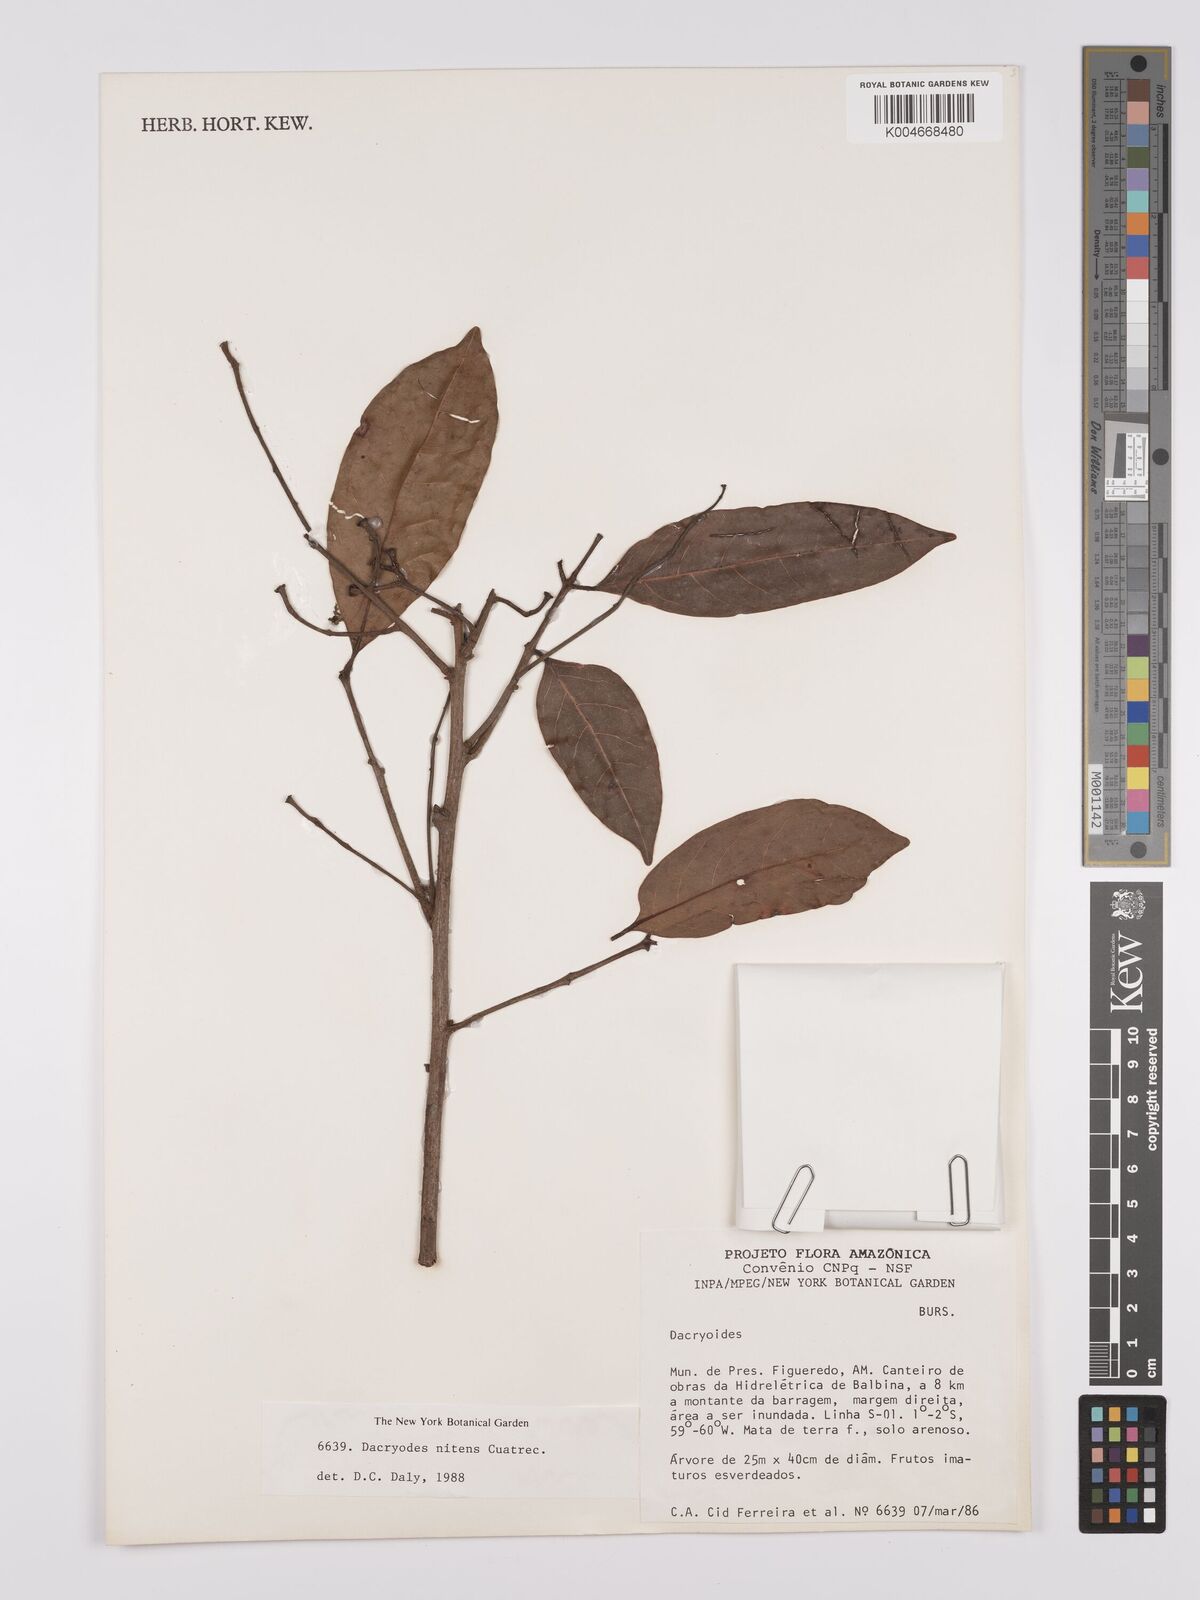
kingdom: Plantae
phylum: Tracheophyta
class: Magnoliopsida
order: Sapindales
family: Burseraceae
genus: Dacryodes
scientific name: Dacryodes nitens
